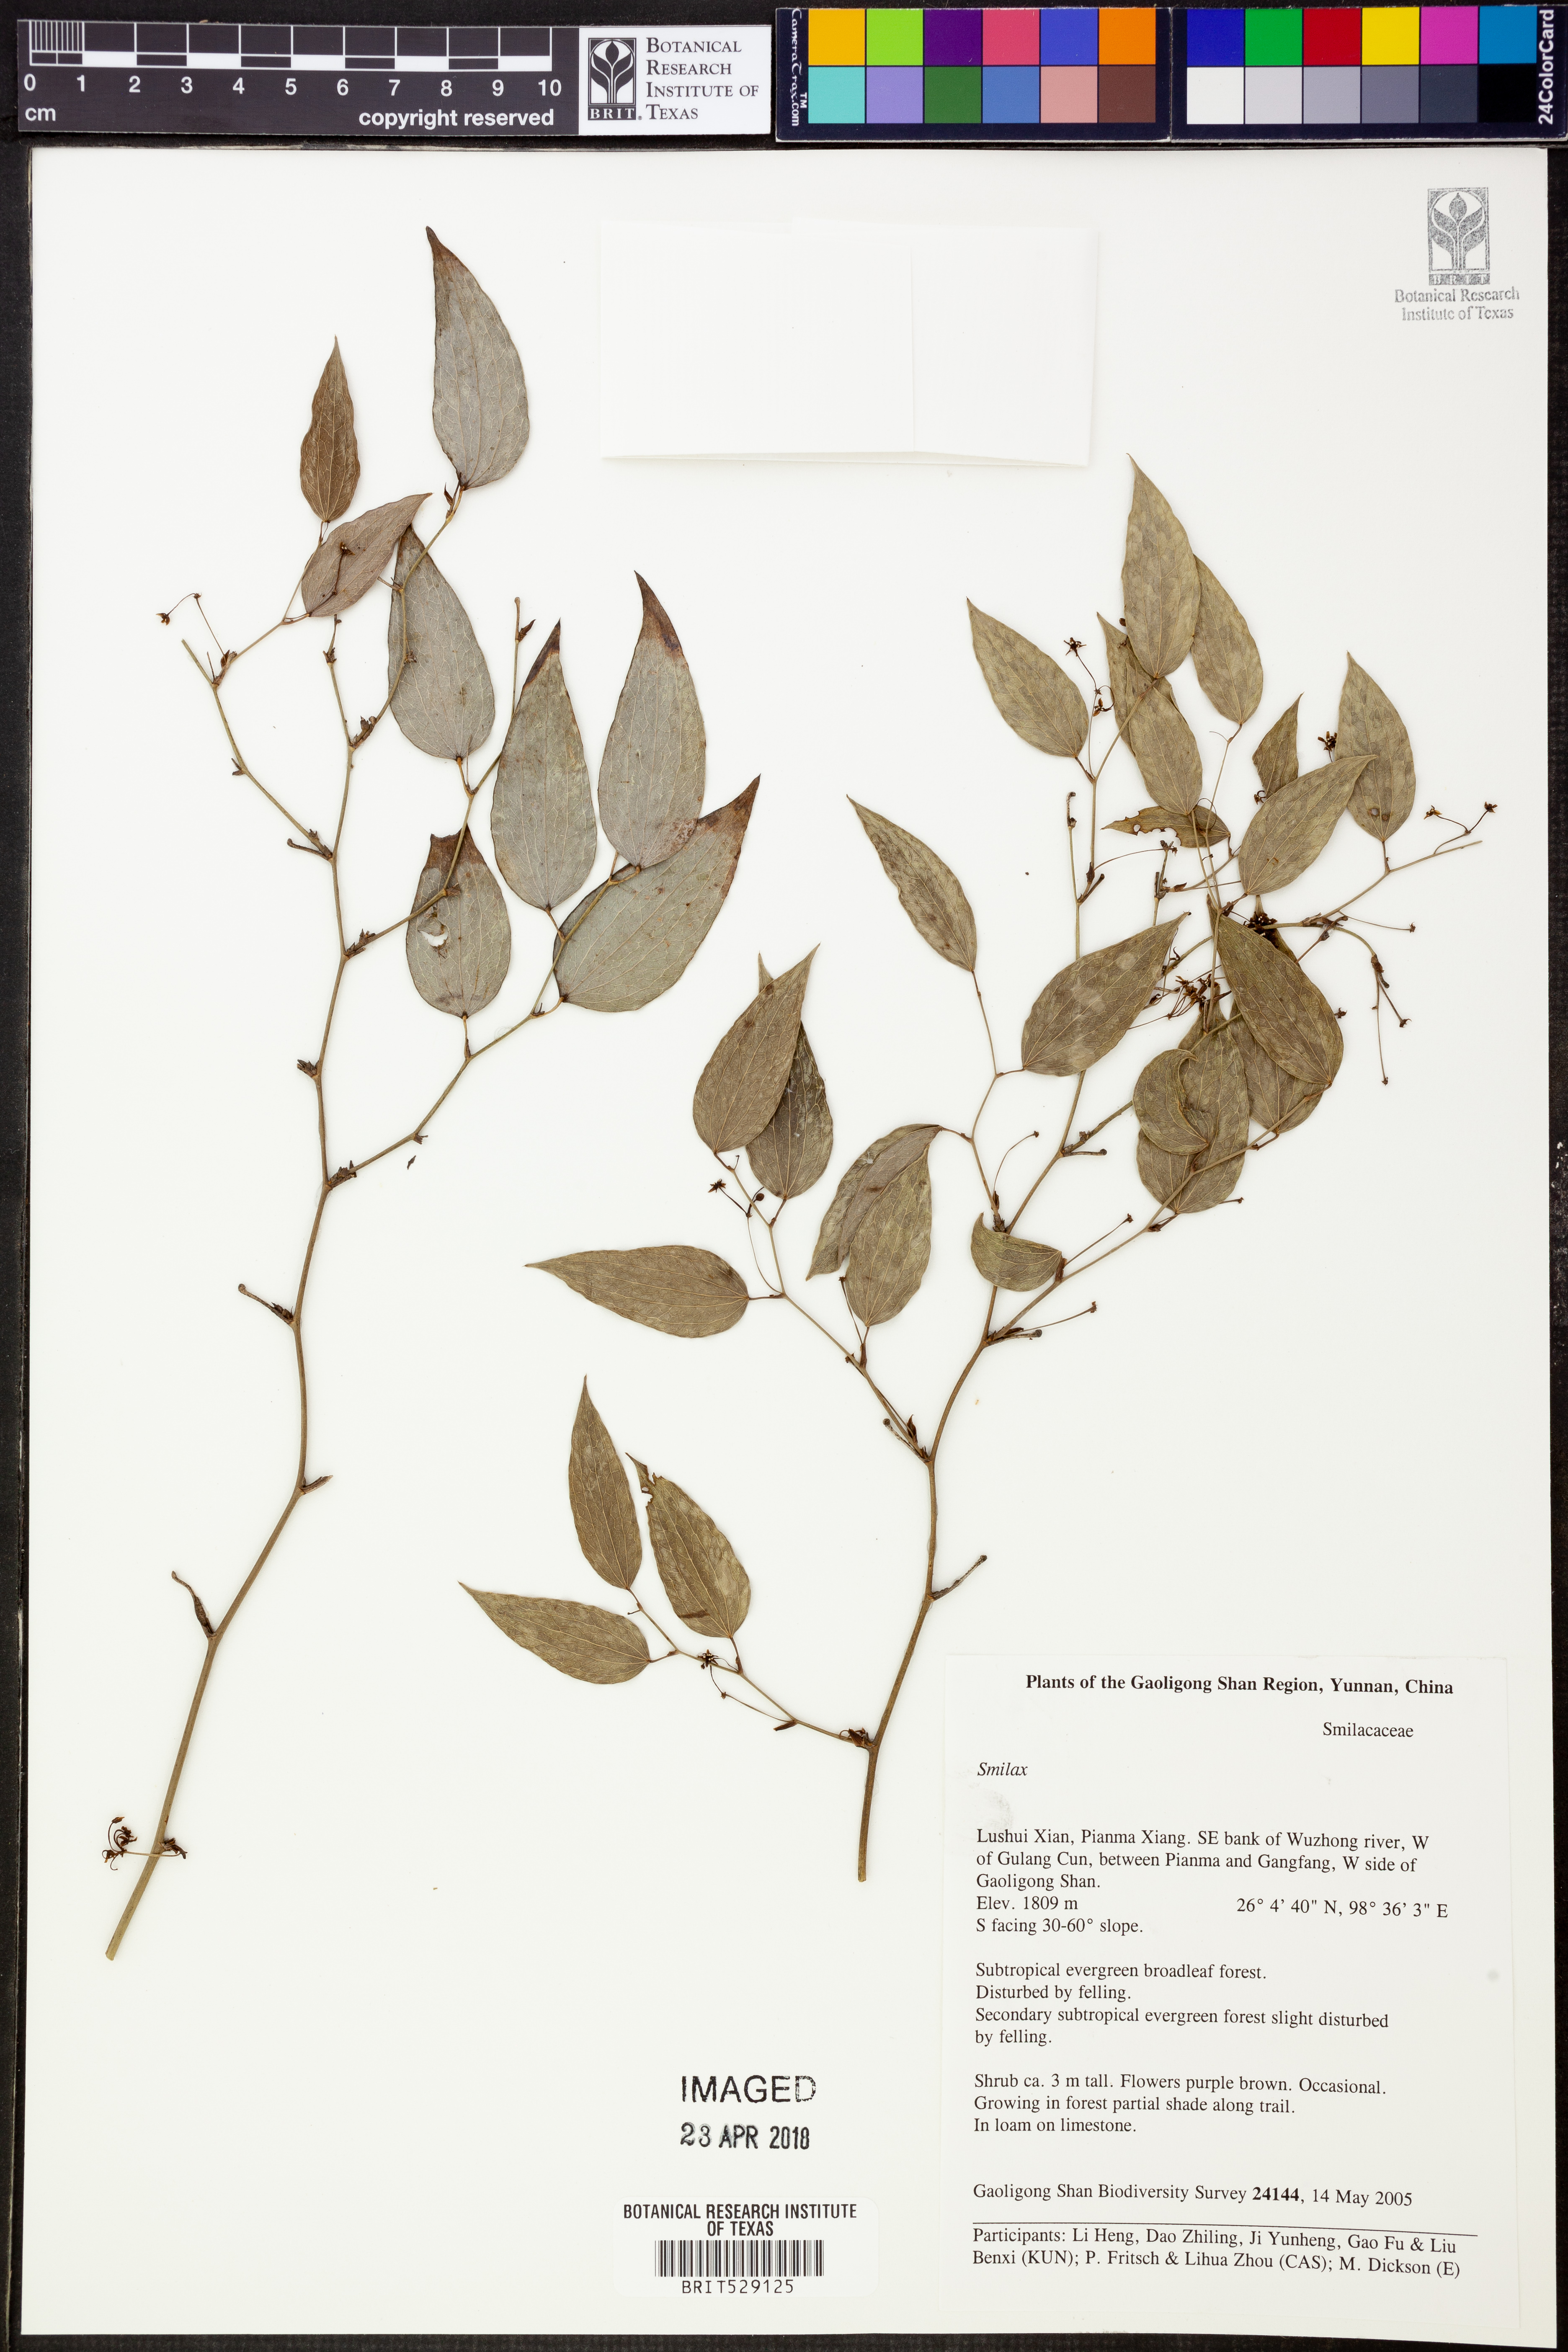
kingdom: Plantae
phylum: Tracheophyta
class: Liliopsida
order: Liliales
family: Smilacaceae
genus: Smilax
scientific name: Smilax
